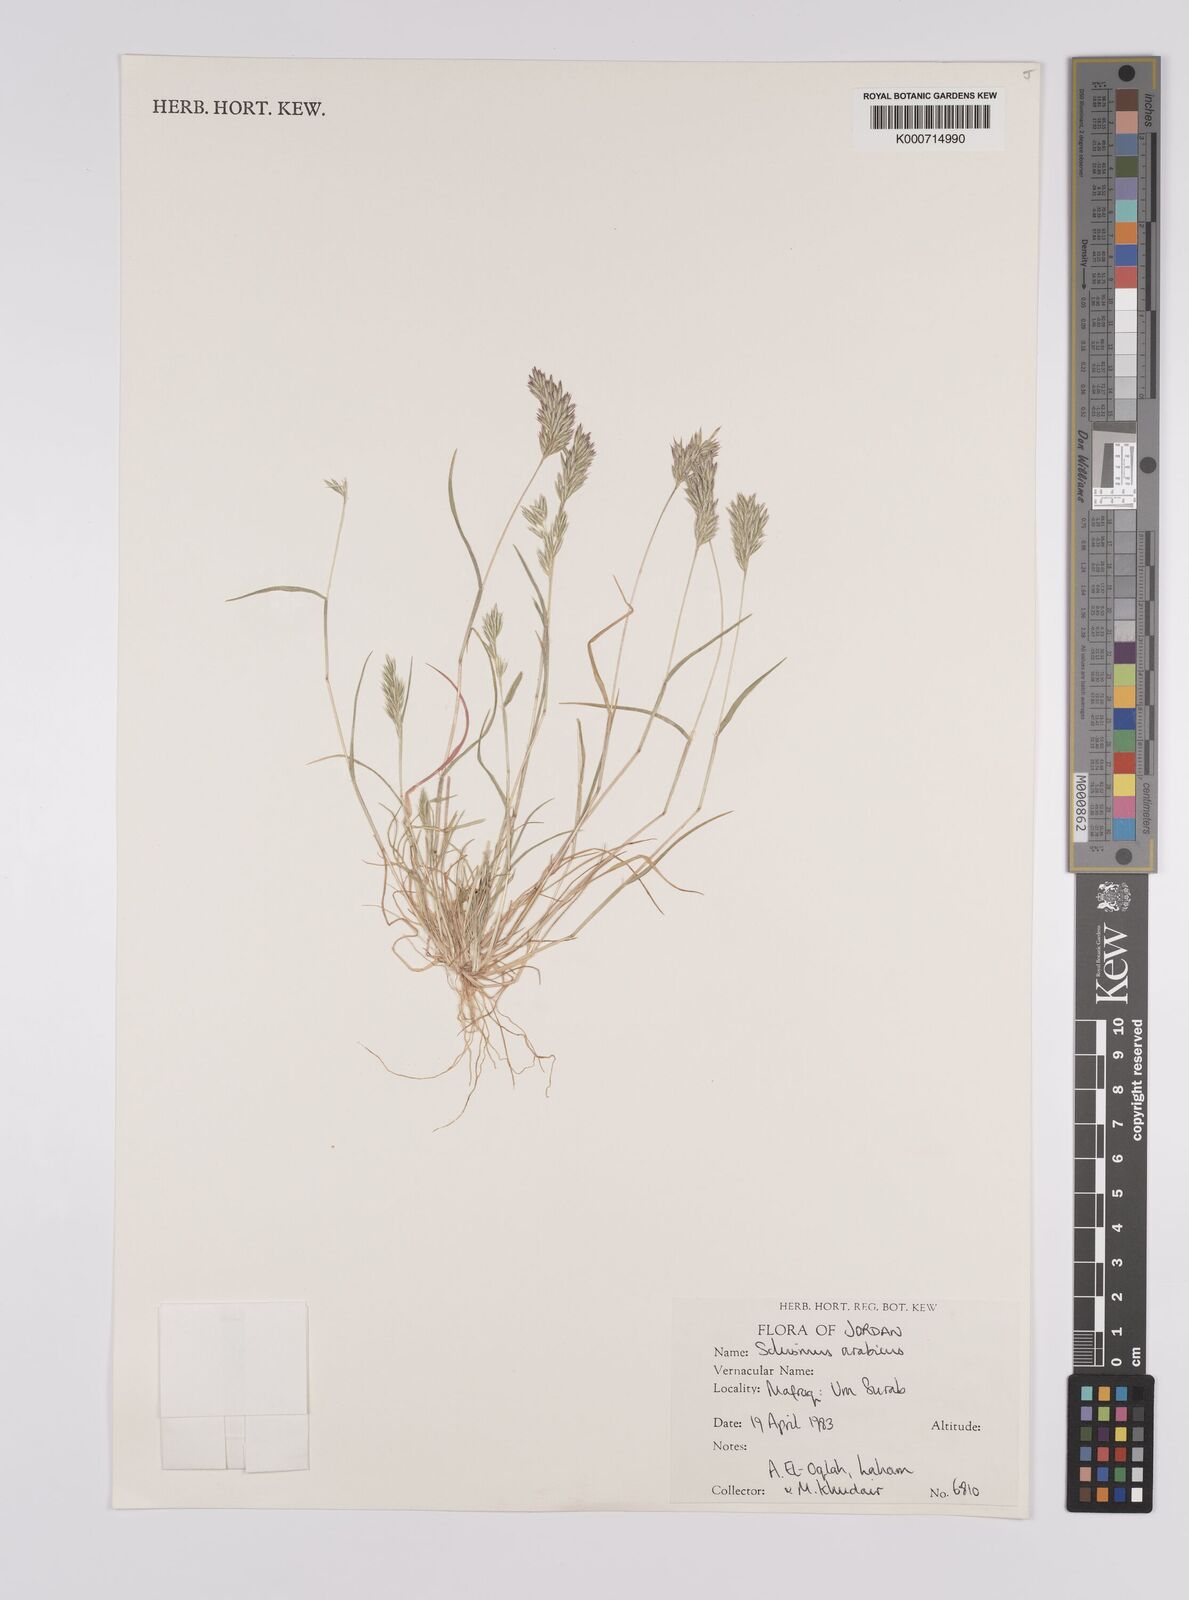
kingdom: Plantae
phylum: Tracheophyta
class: Liliopsida
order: Poales
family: Poaceae
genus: Schismus
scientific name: Schismus arabicus
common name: Arabian schismus
